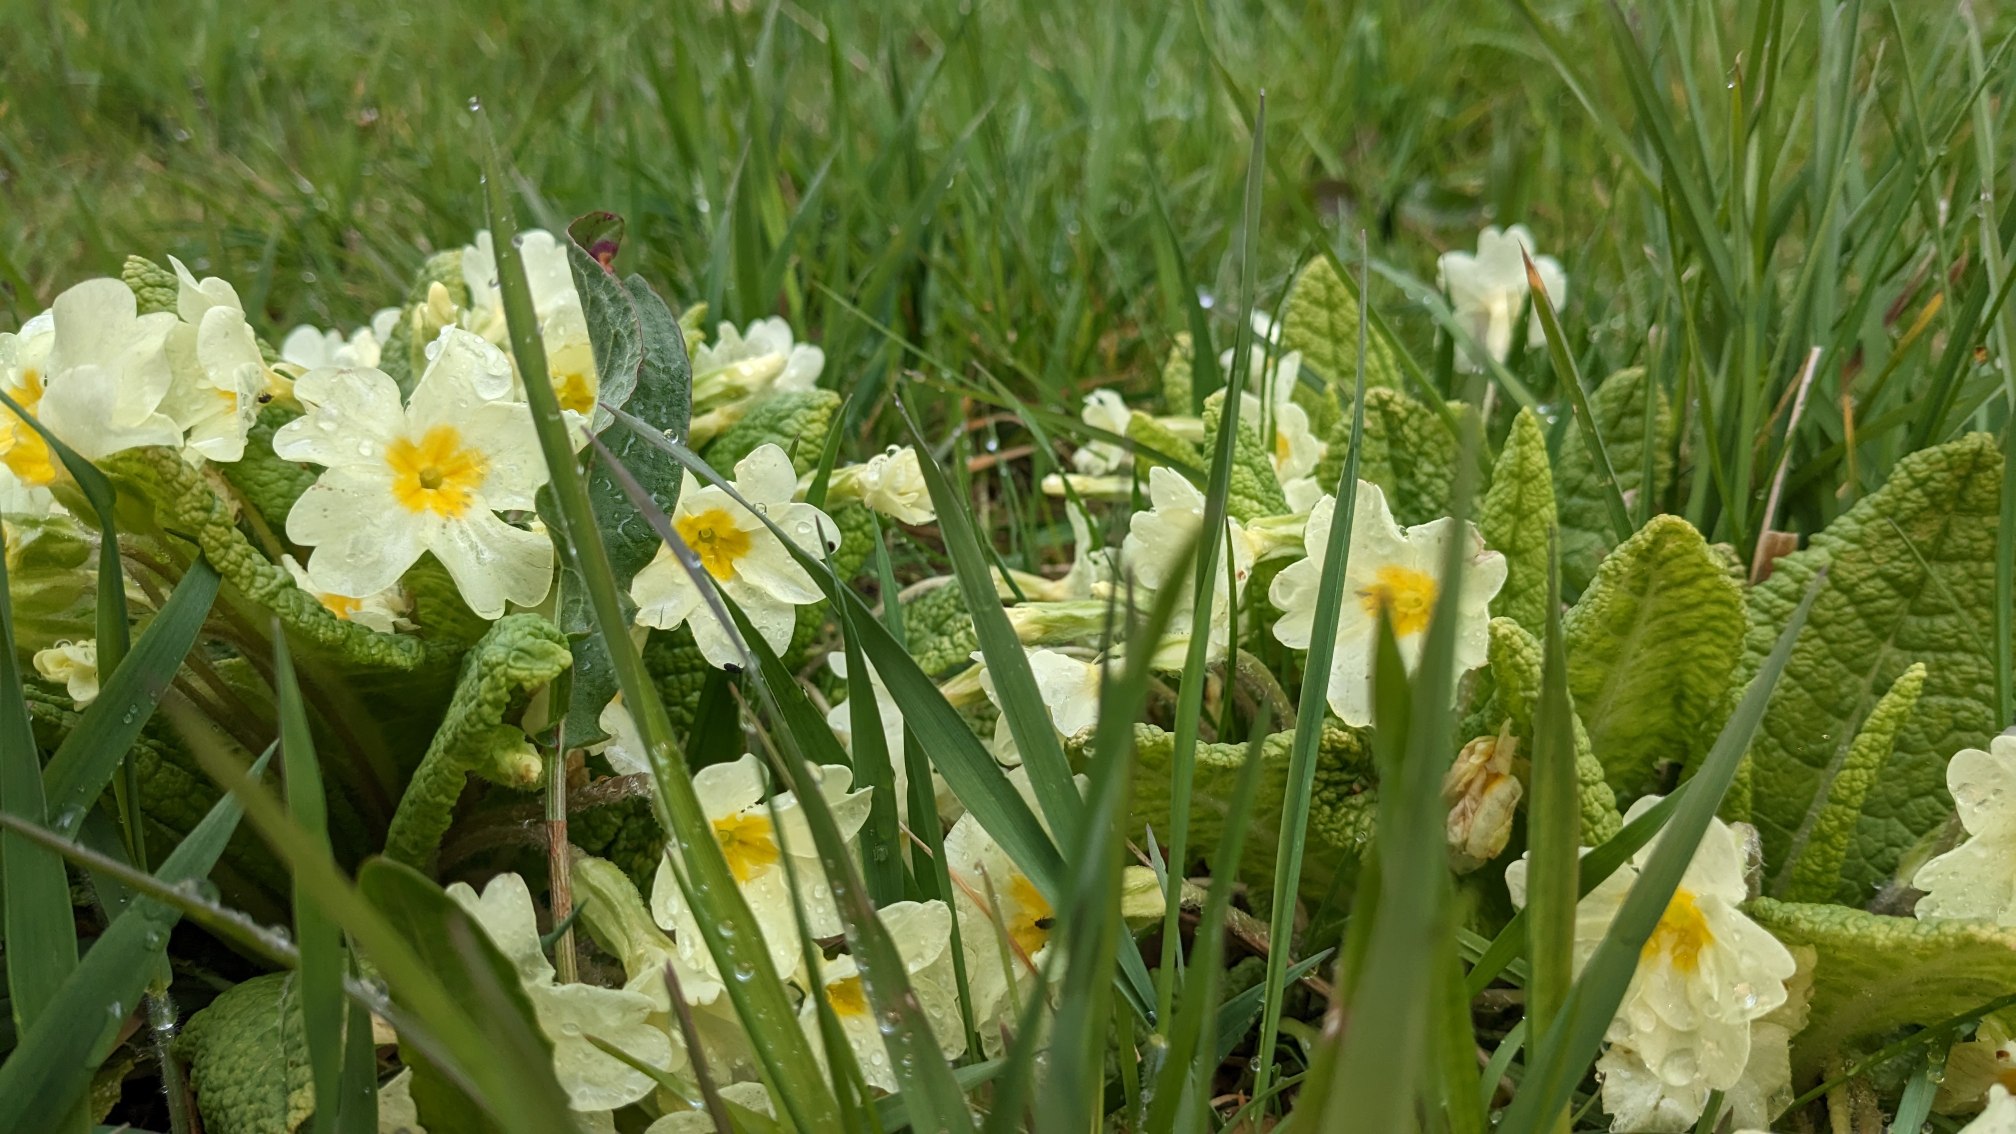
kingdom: Plantae
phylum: Tracheophyta
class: Magnoliopsida
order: Ericales
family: Primulaceae
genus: Primula
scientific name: Primula vulgaris
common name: Storblomstret kodriver
